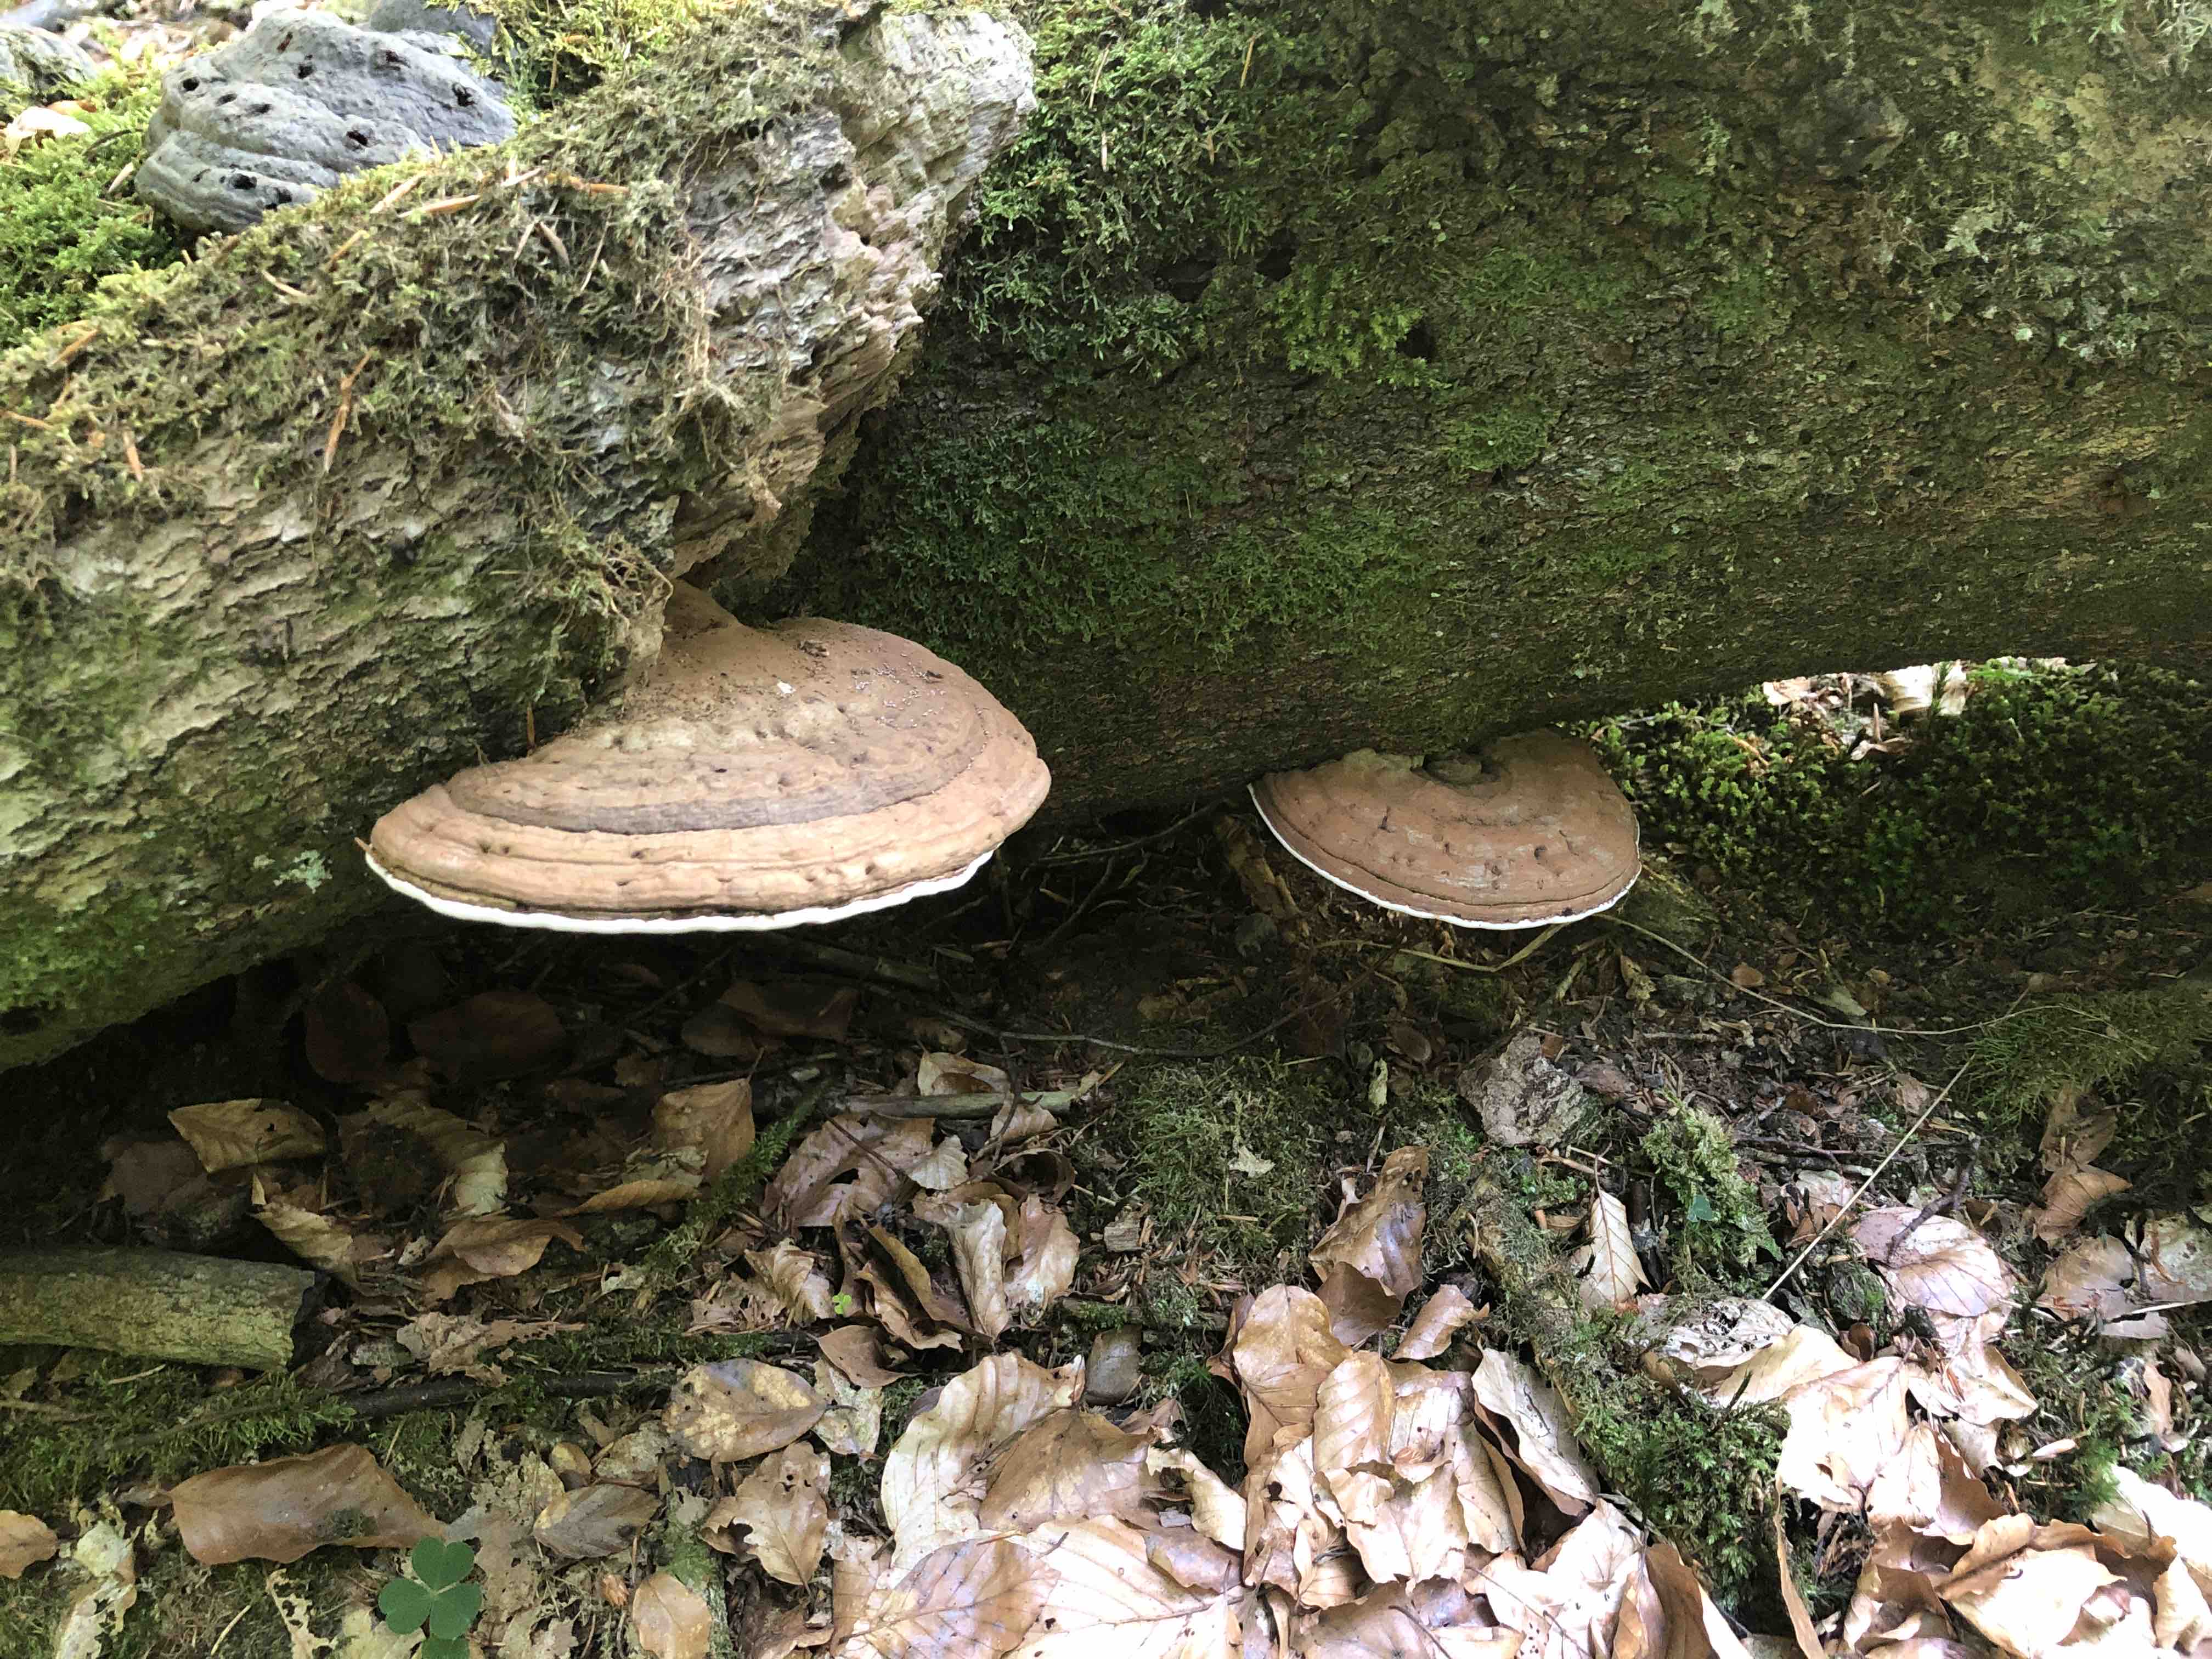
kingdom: Fungi
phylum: Basidiomycota
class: Agaricomycetes
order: Polyporales
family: Polyporaceae
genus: Ganoderma
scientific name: Ganoderma applanatum
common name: flad lakporesvamp
